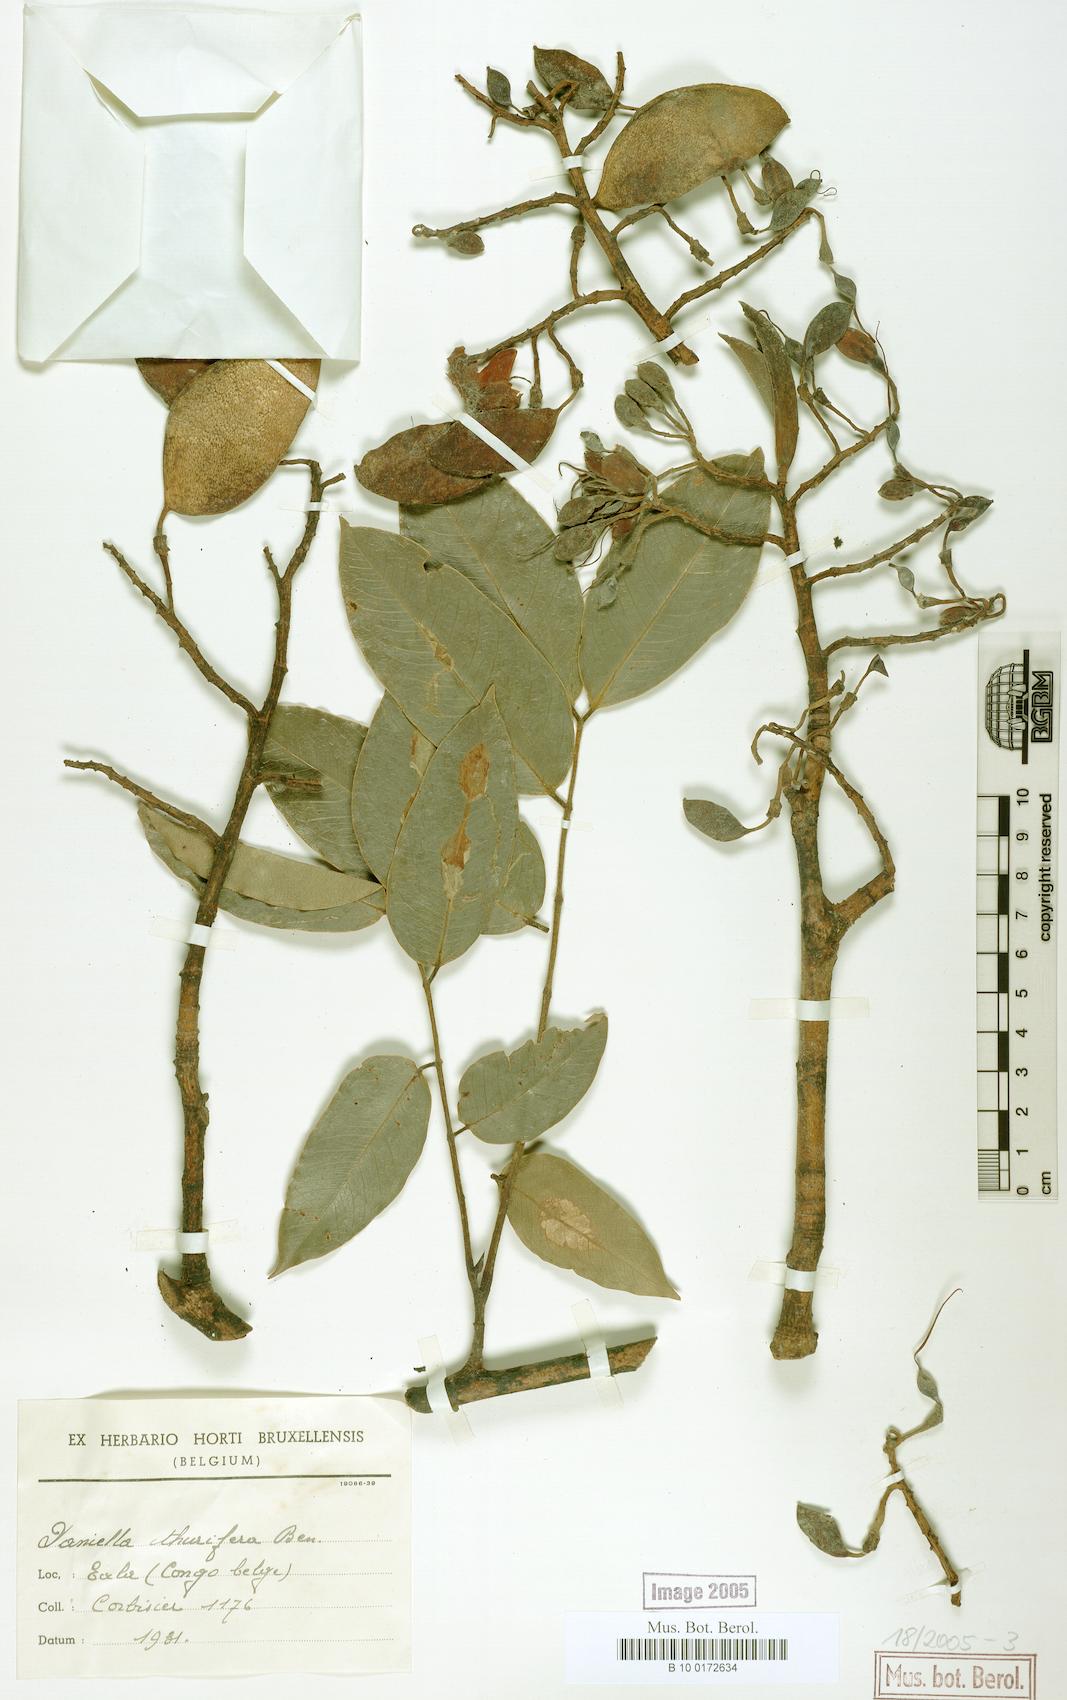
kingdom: Plantae
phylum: Tracheophyta
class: Magnoliopsida
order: Fabales
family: Fabaceae
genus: Daniellia
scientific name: Daniellia pynaertii
